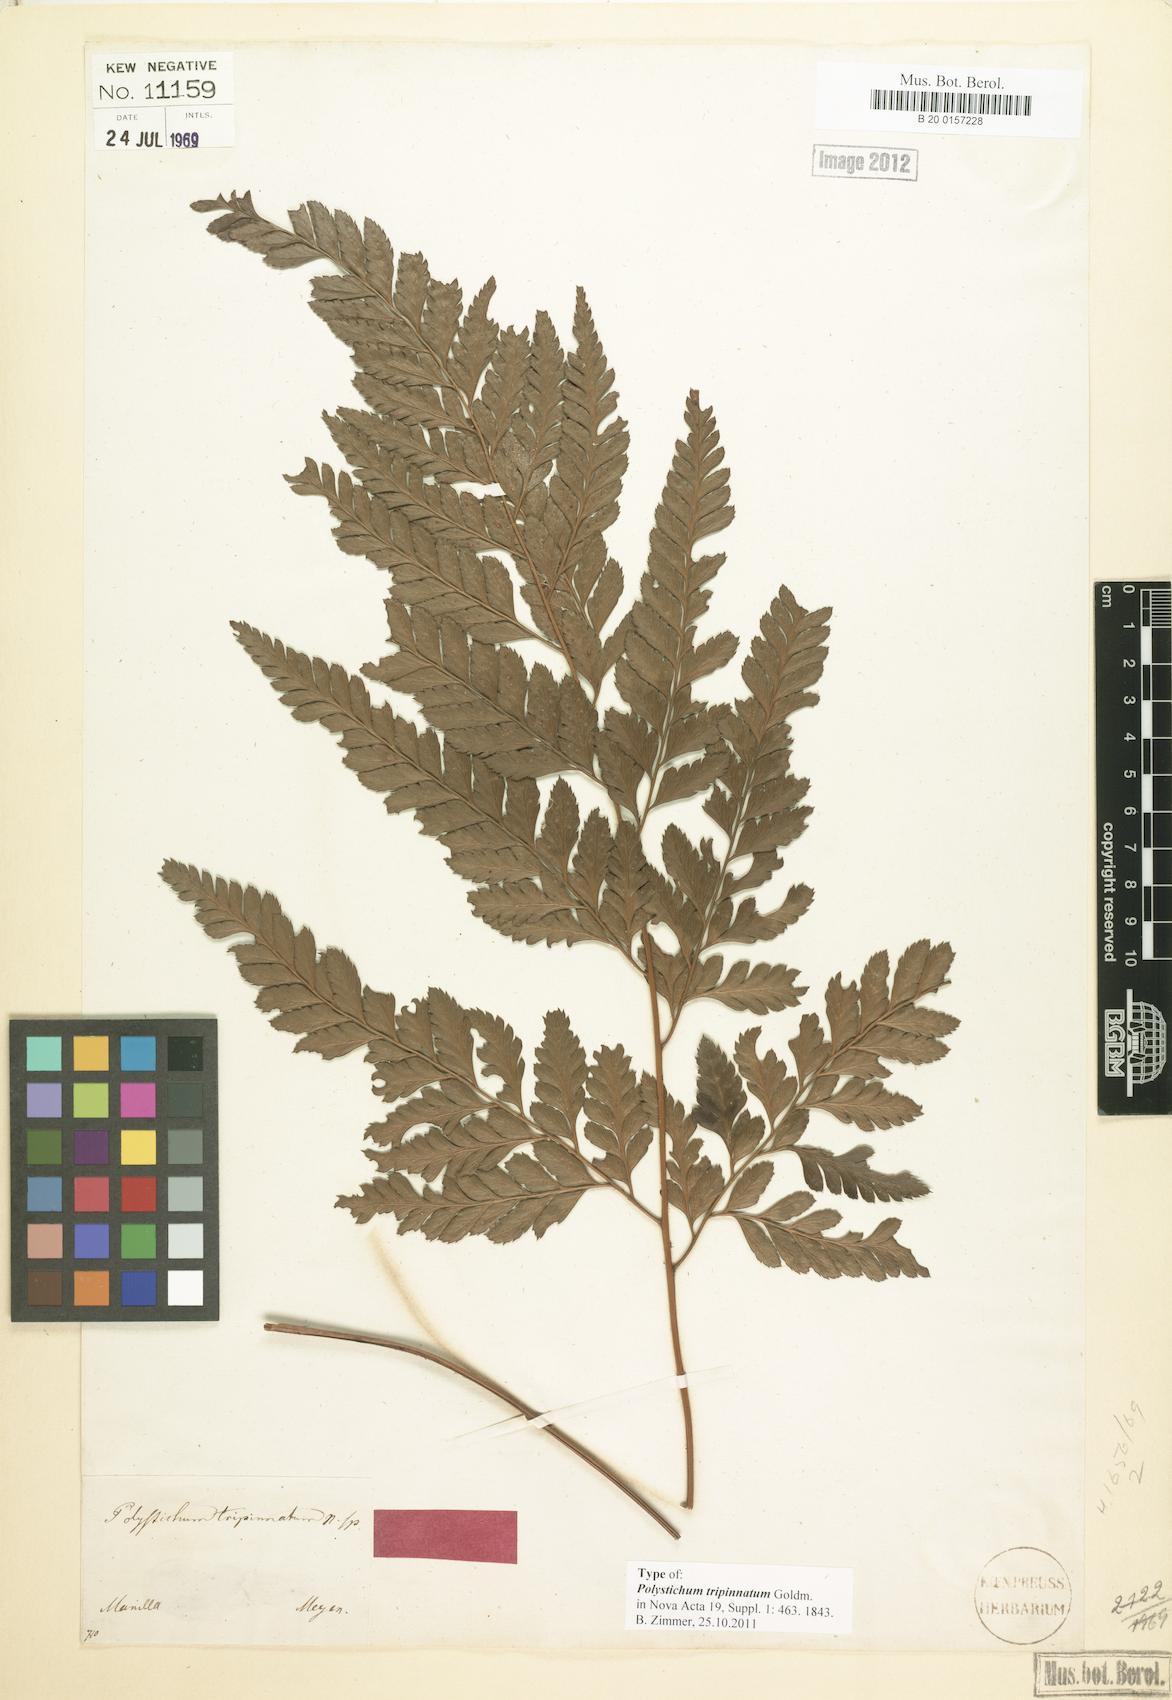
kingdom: Plantae
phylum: Tracheophyta
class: Polypodiopsida
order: Polypodiales
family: Dryopteridaceae
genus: Arachniodes
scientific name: Arachniodes tripinnata
